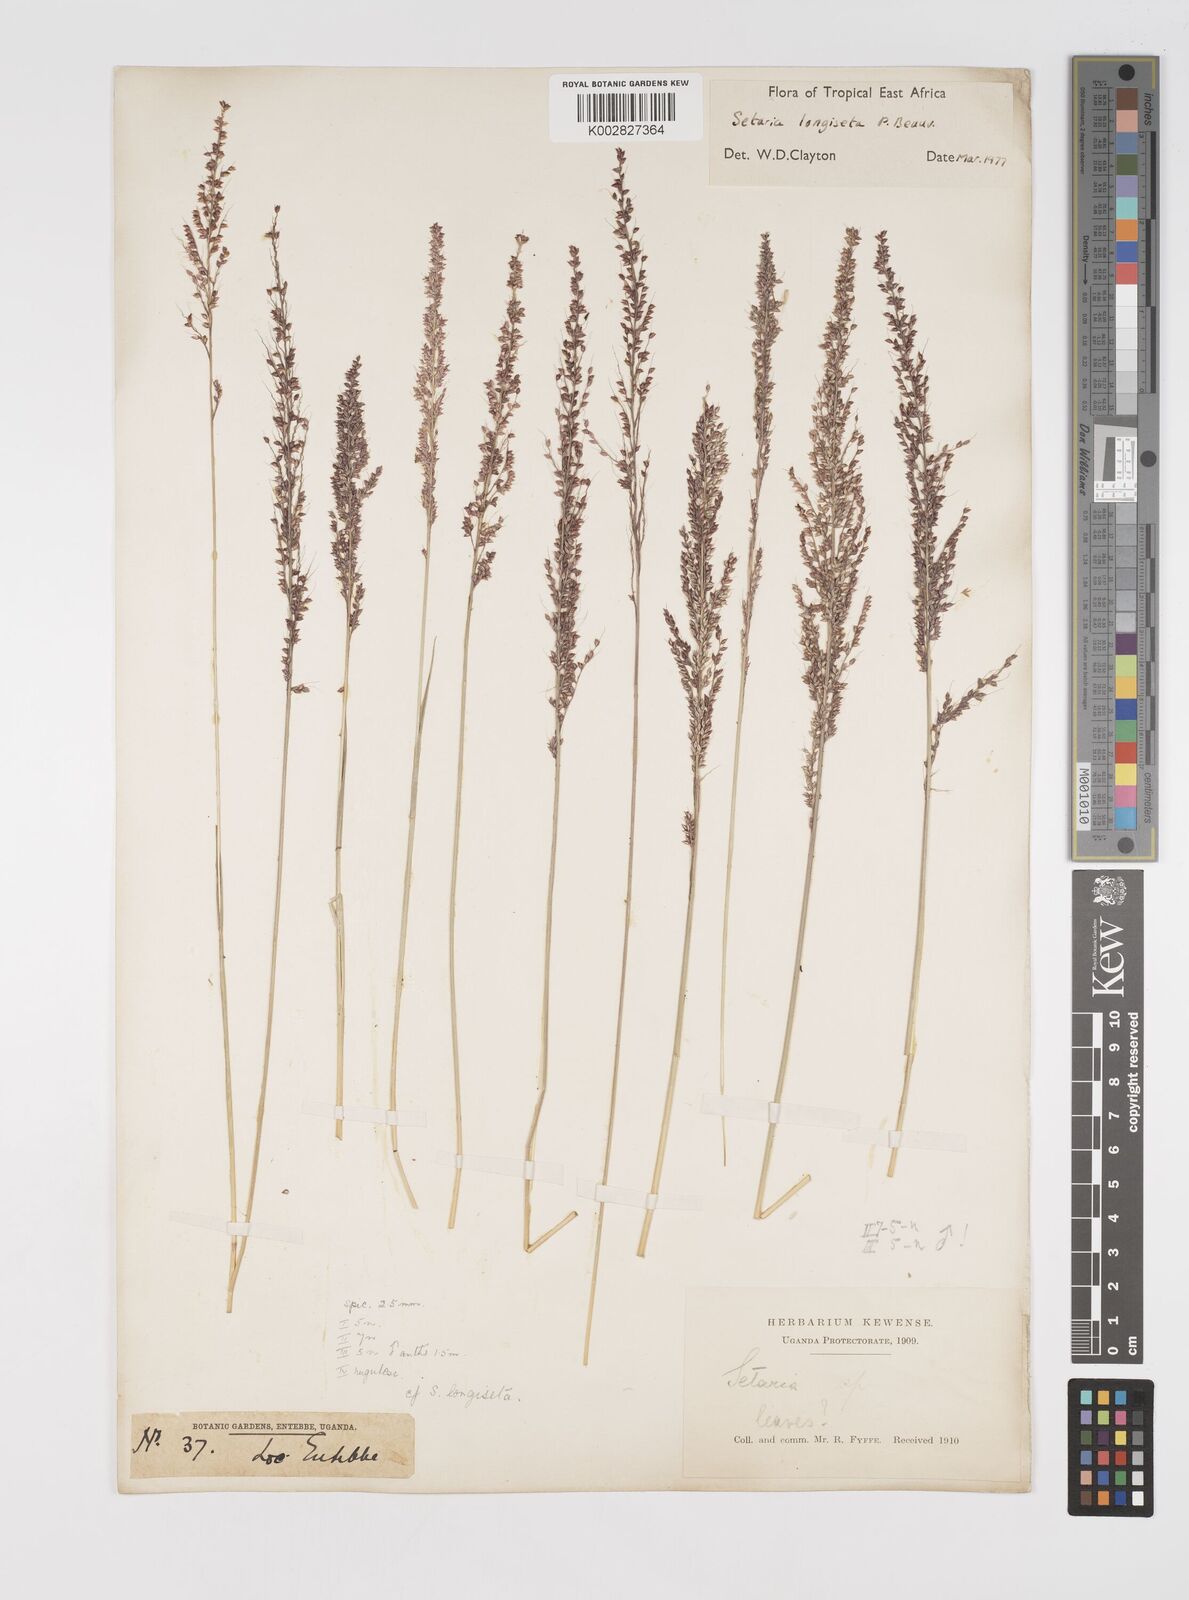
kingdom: Plantae
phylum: Tracheophyta
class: Liliopsida
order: Poales
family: Poaceae
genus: Setaria
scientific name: Setaria longiseta
